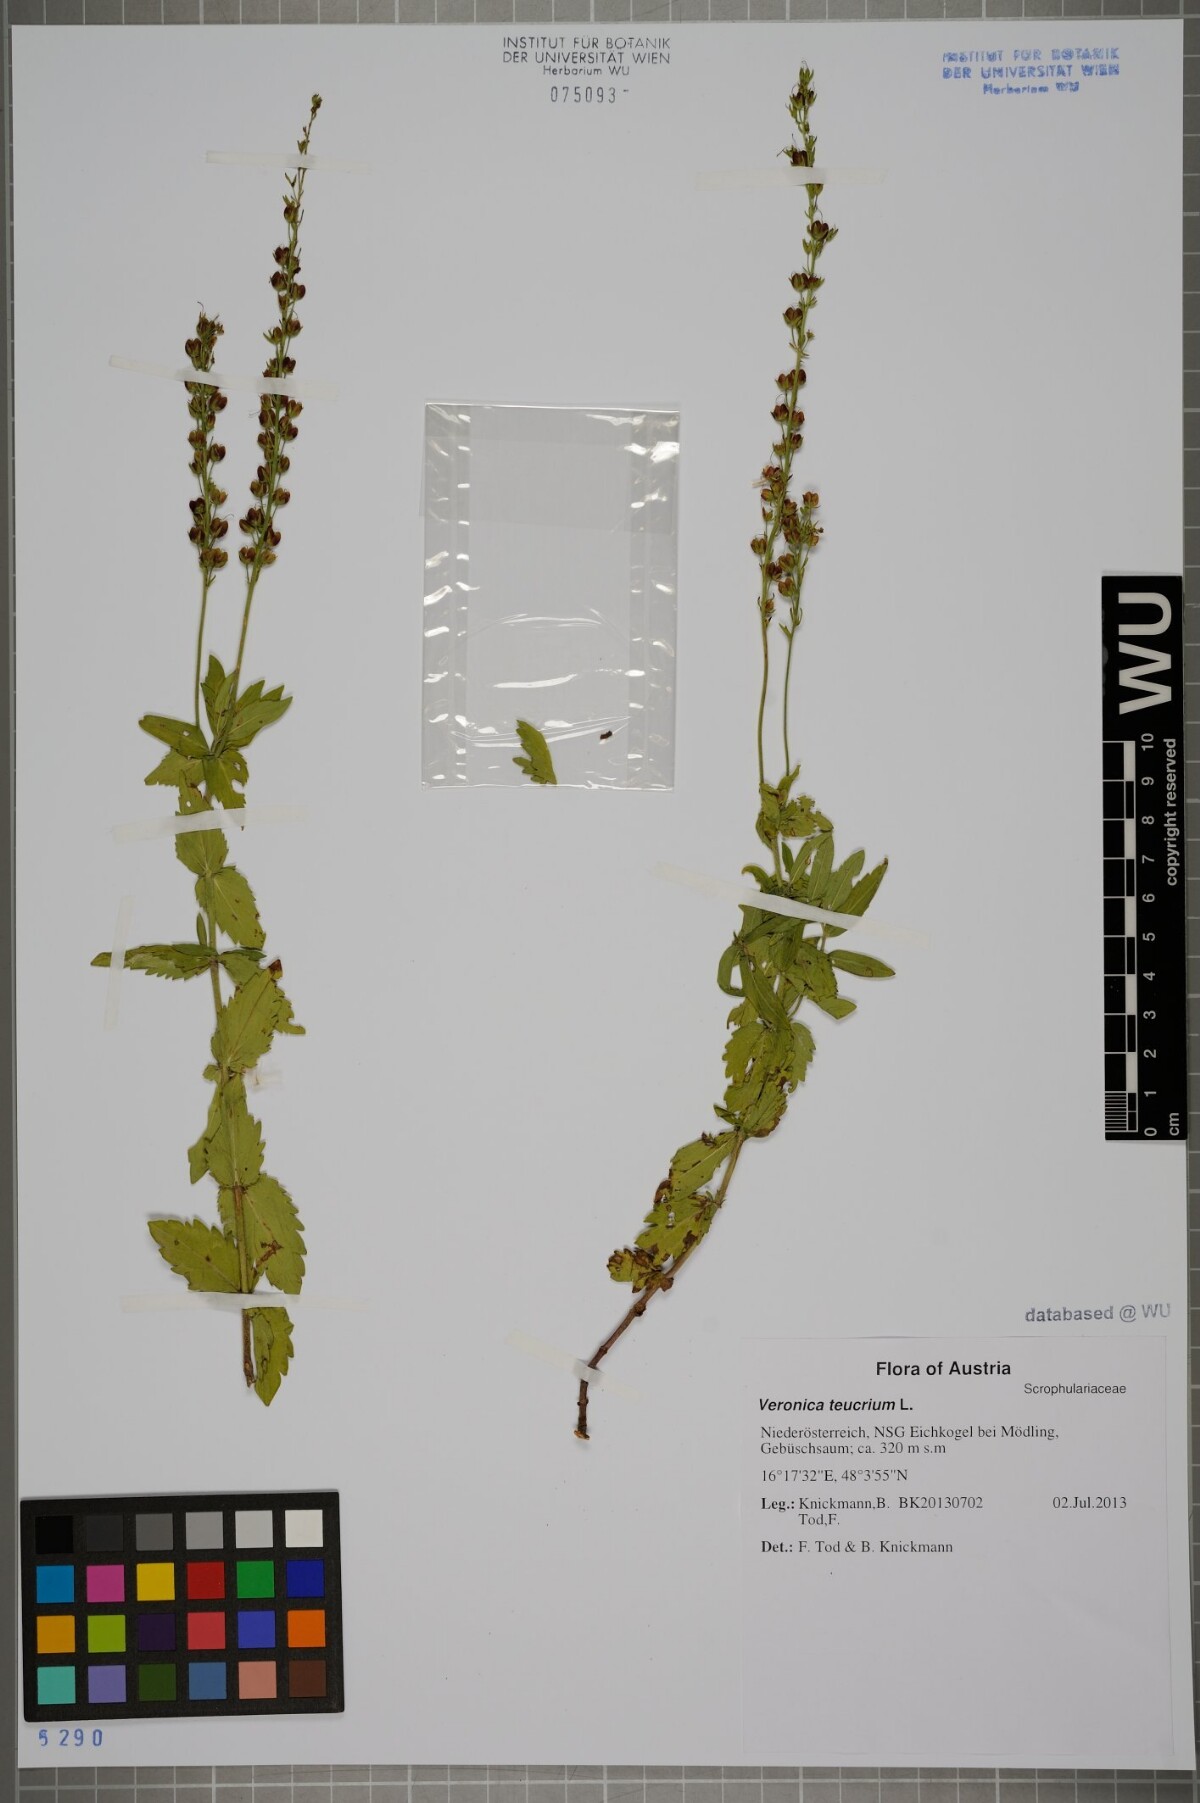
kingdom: Plantae
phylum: Tracheophyta
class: Magnoliopsida
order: Lamiales
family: Plantaginaceae
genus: Veronica
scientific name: Veronica teucrium
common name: Large speedwell
